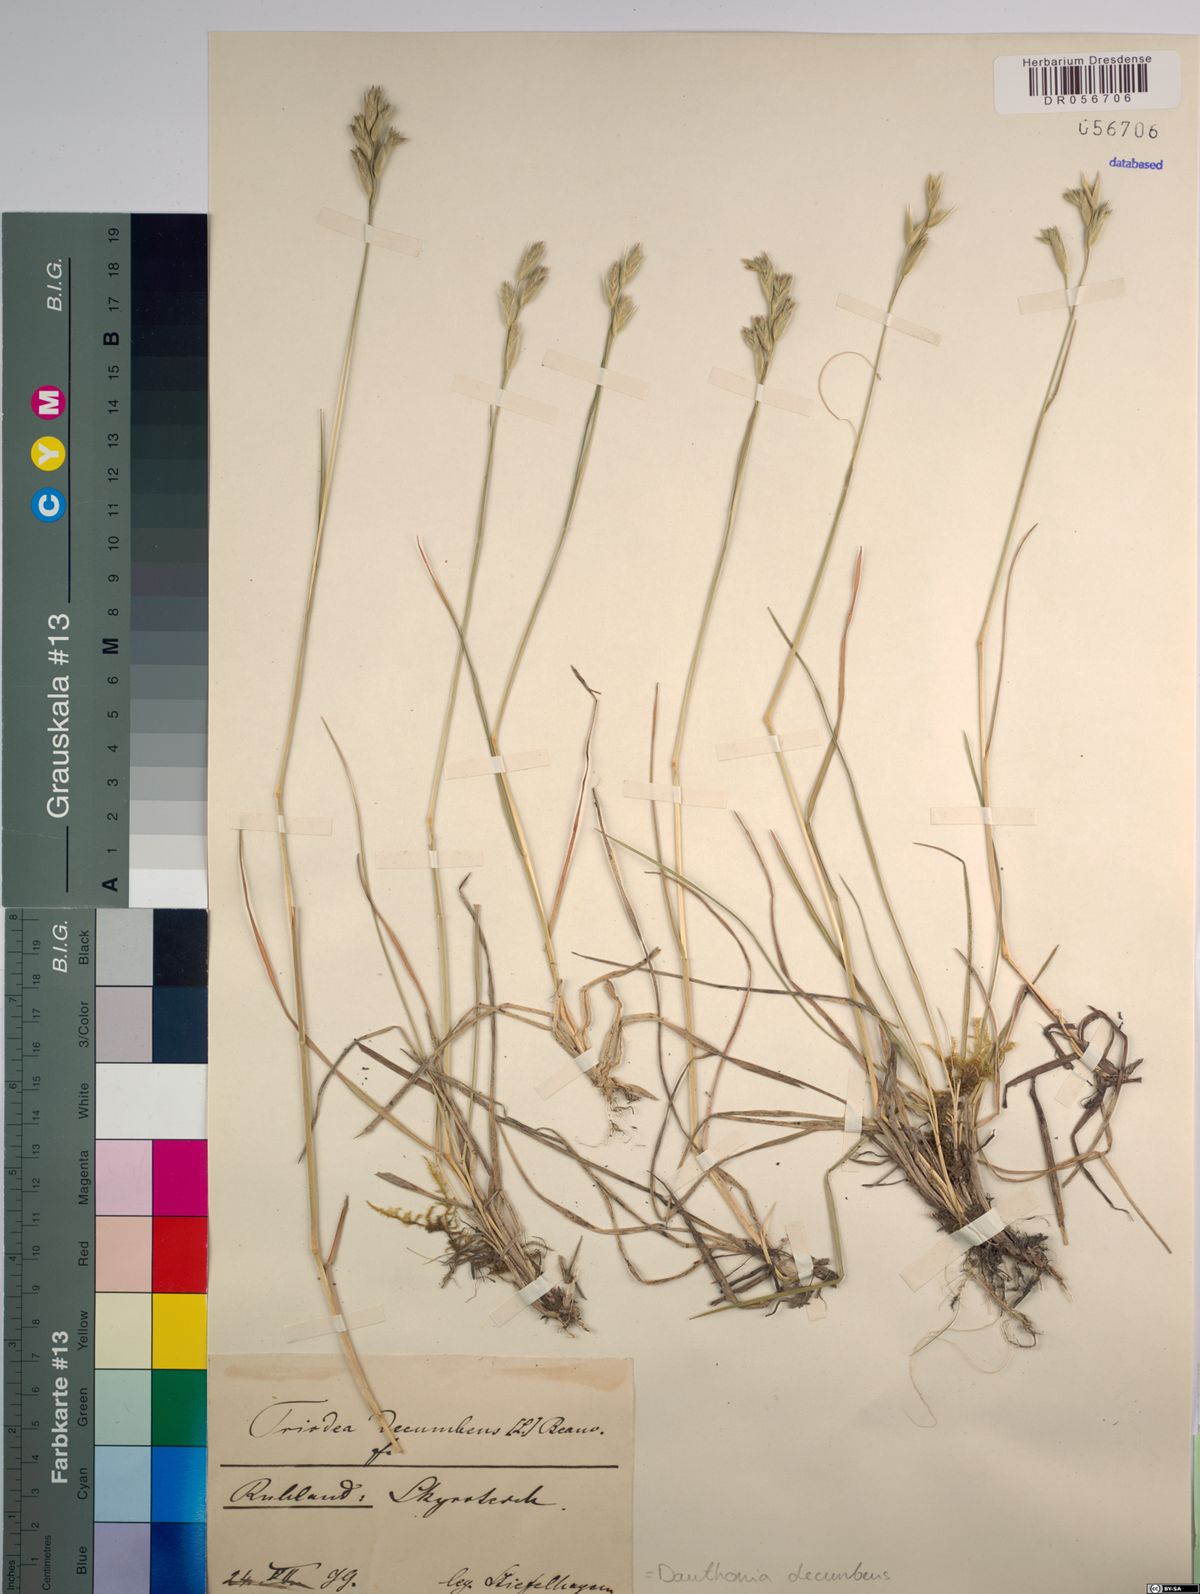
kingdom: Plantae
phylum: Tracheophyta
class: Liliopsida
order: Poales
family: Poaceae
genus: Danthonia
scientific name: Danthonia decumbens
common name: Common heathgrass
